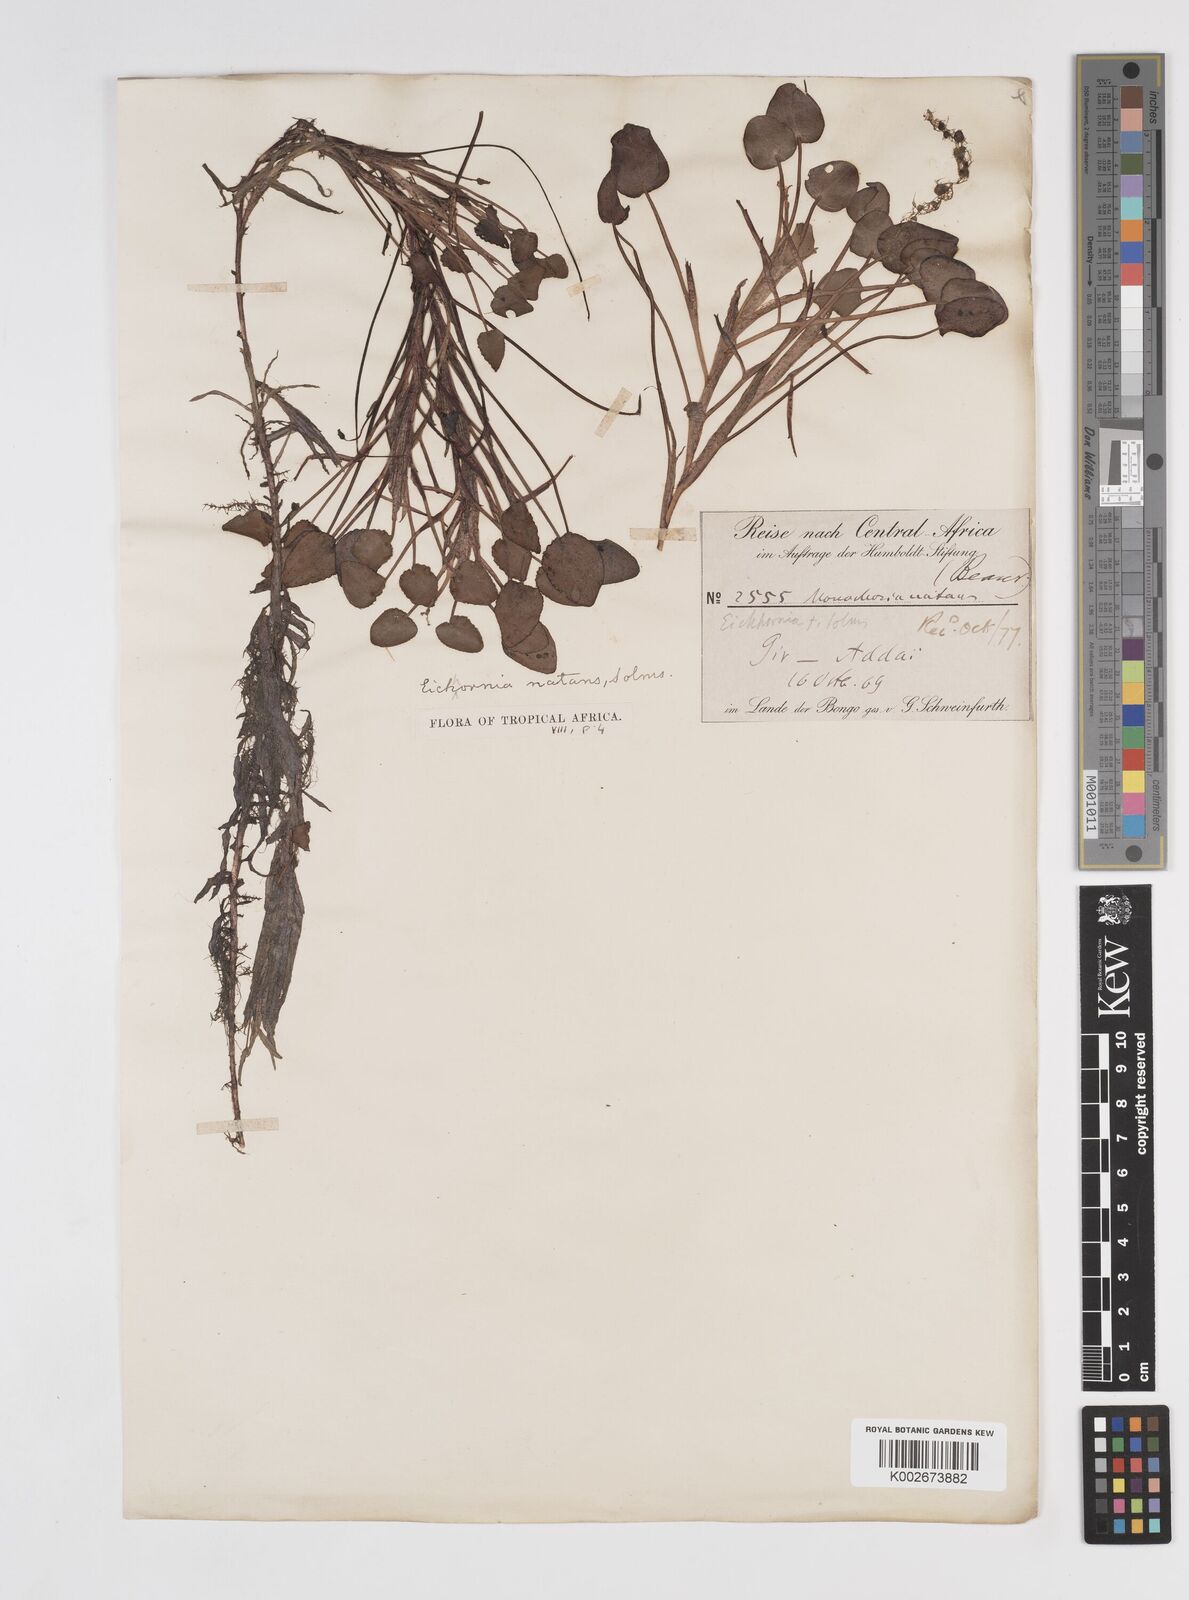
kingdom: Plantae
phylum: Tracheophyta
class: Liliopsida
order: Commelinales
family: Pontederiaceae
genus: Pontederia
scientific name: Pontederia diversifolia
